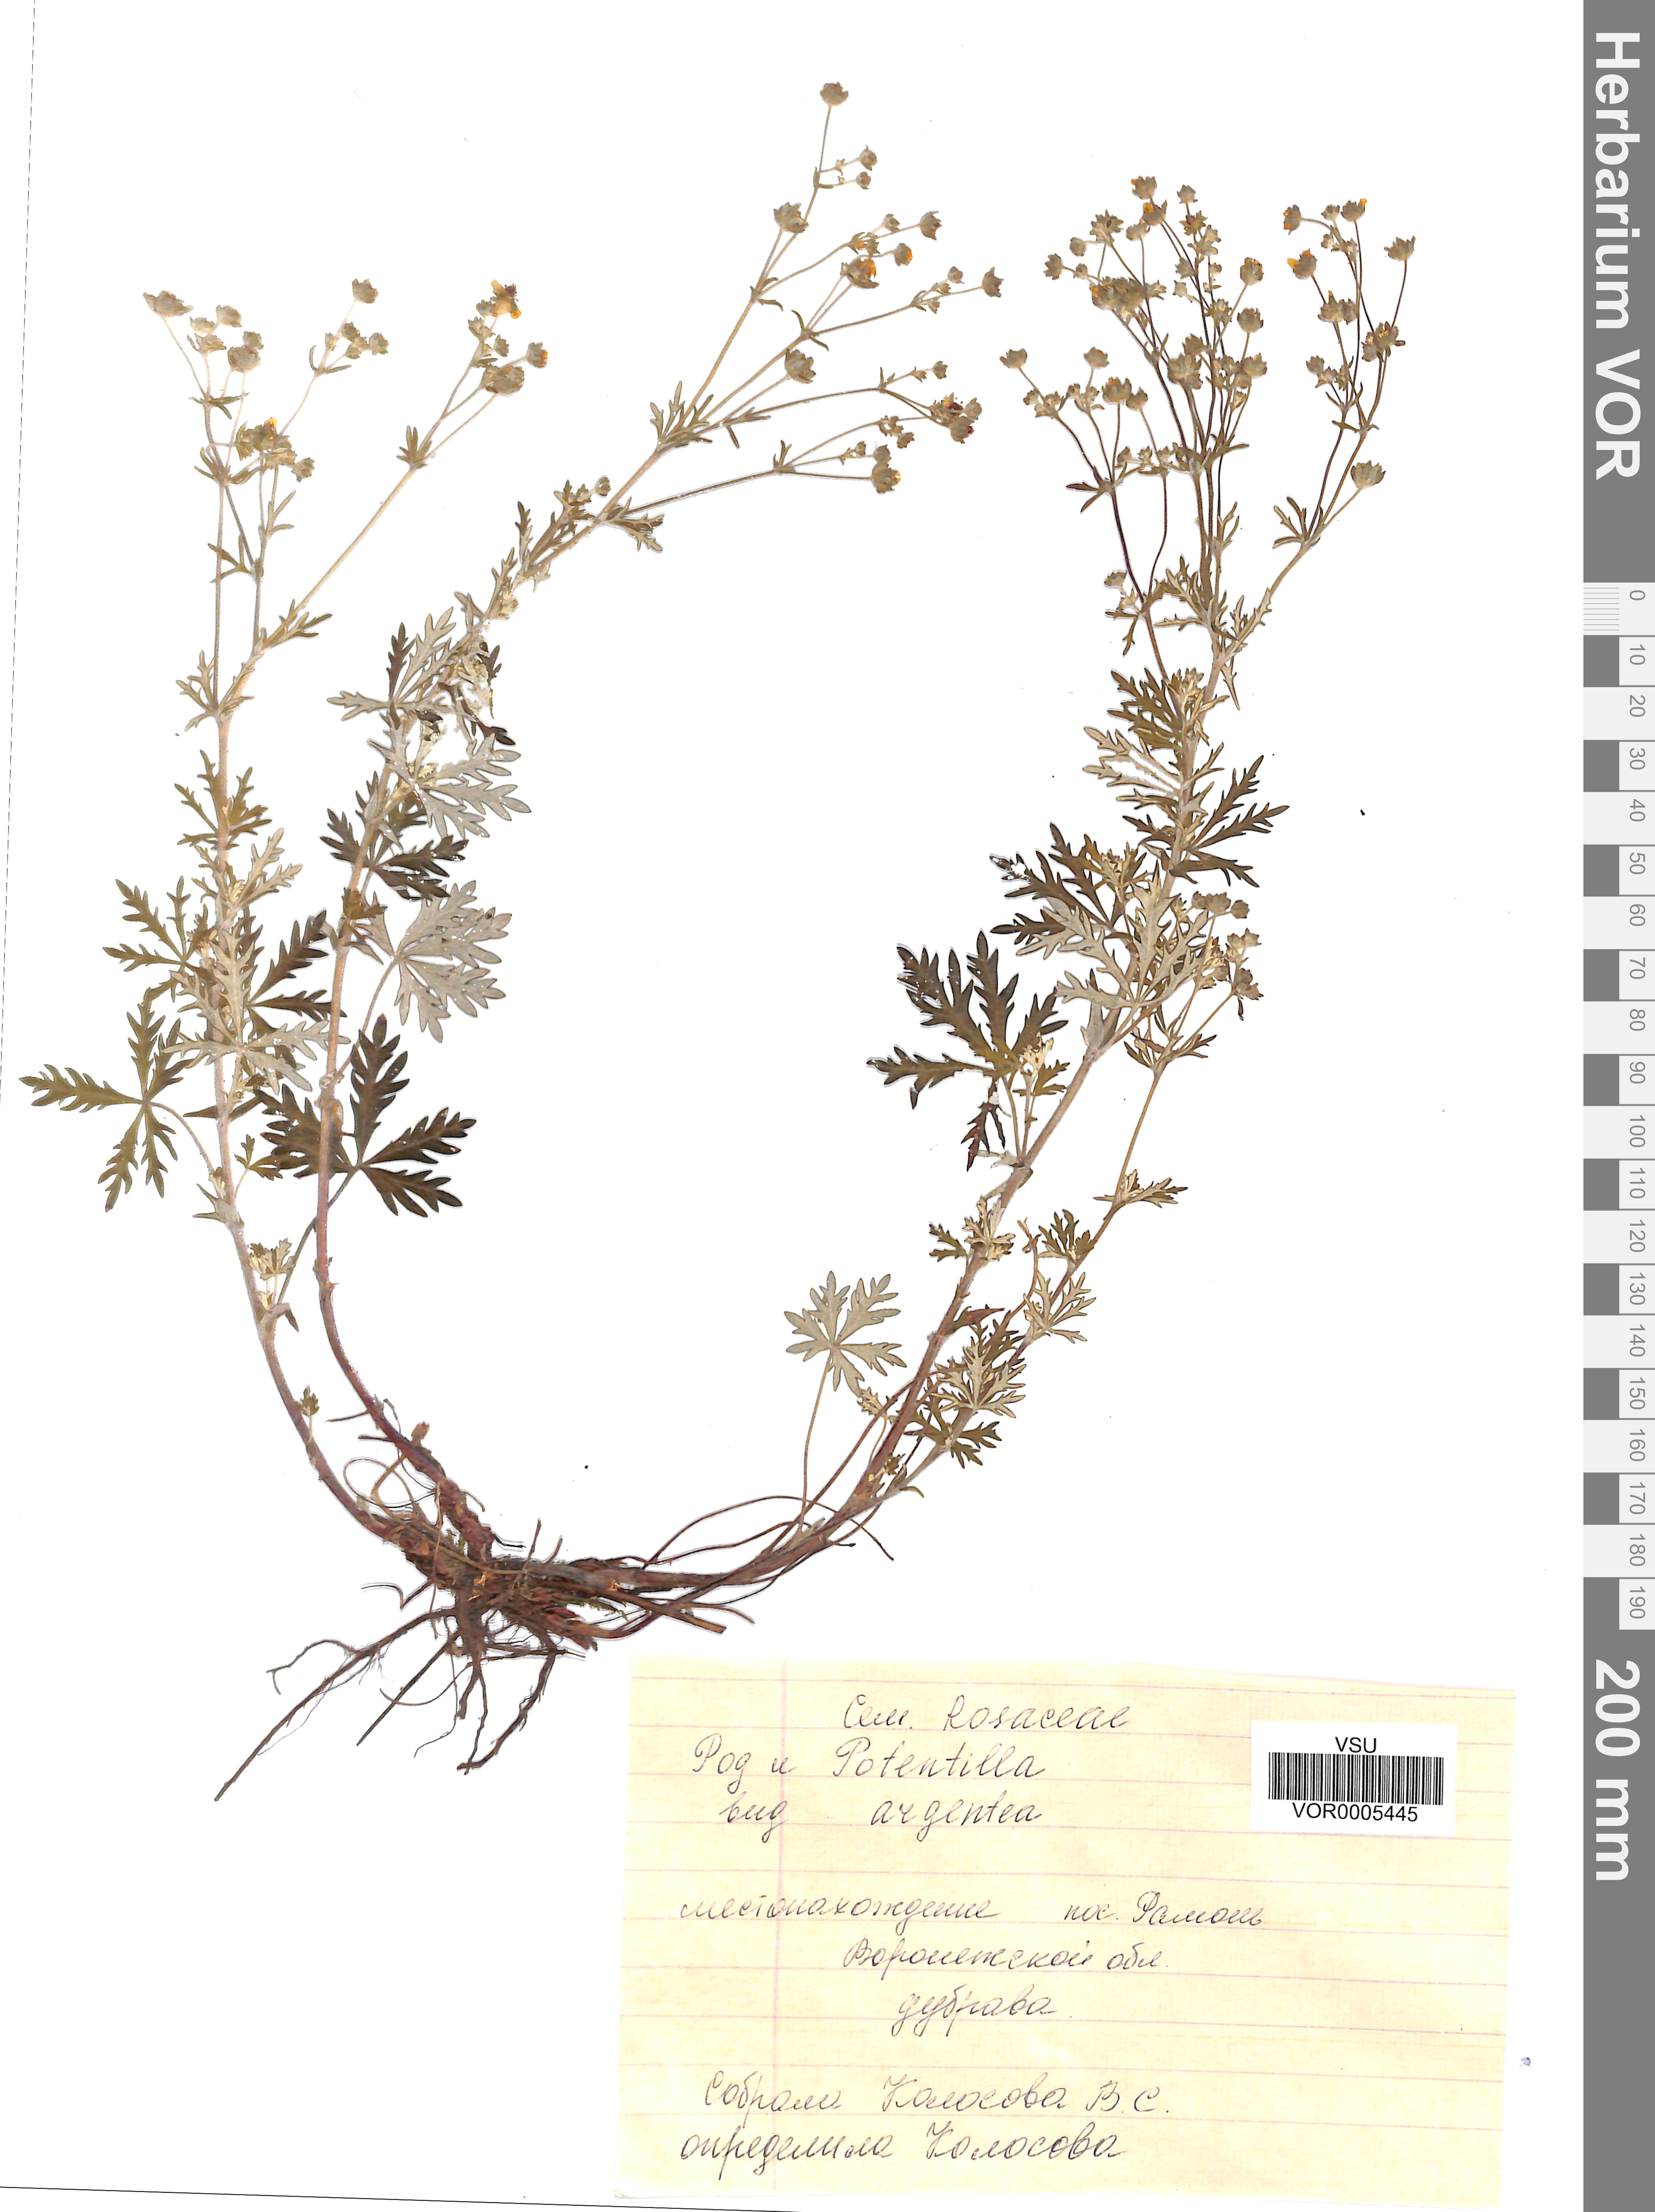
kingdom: Plantae
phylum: Tracheophyta
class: Magnoliopsida
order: Rosales
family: Rosaceae
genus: Potentilla
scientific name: Potentilla argentea
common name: Hoary cinquefoil
